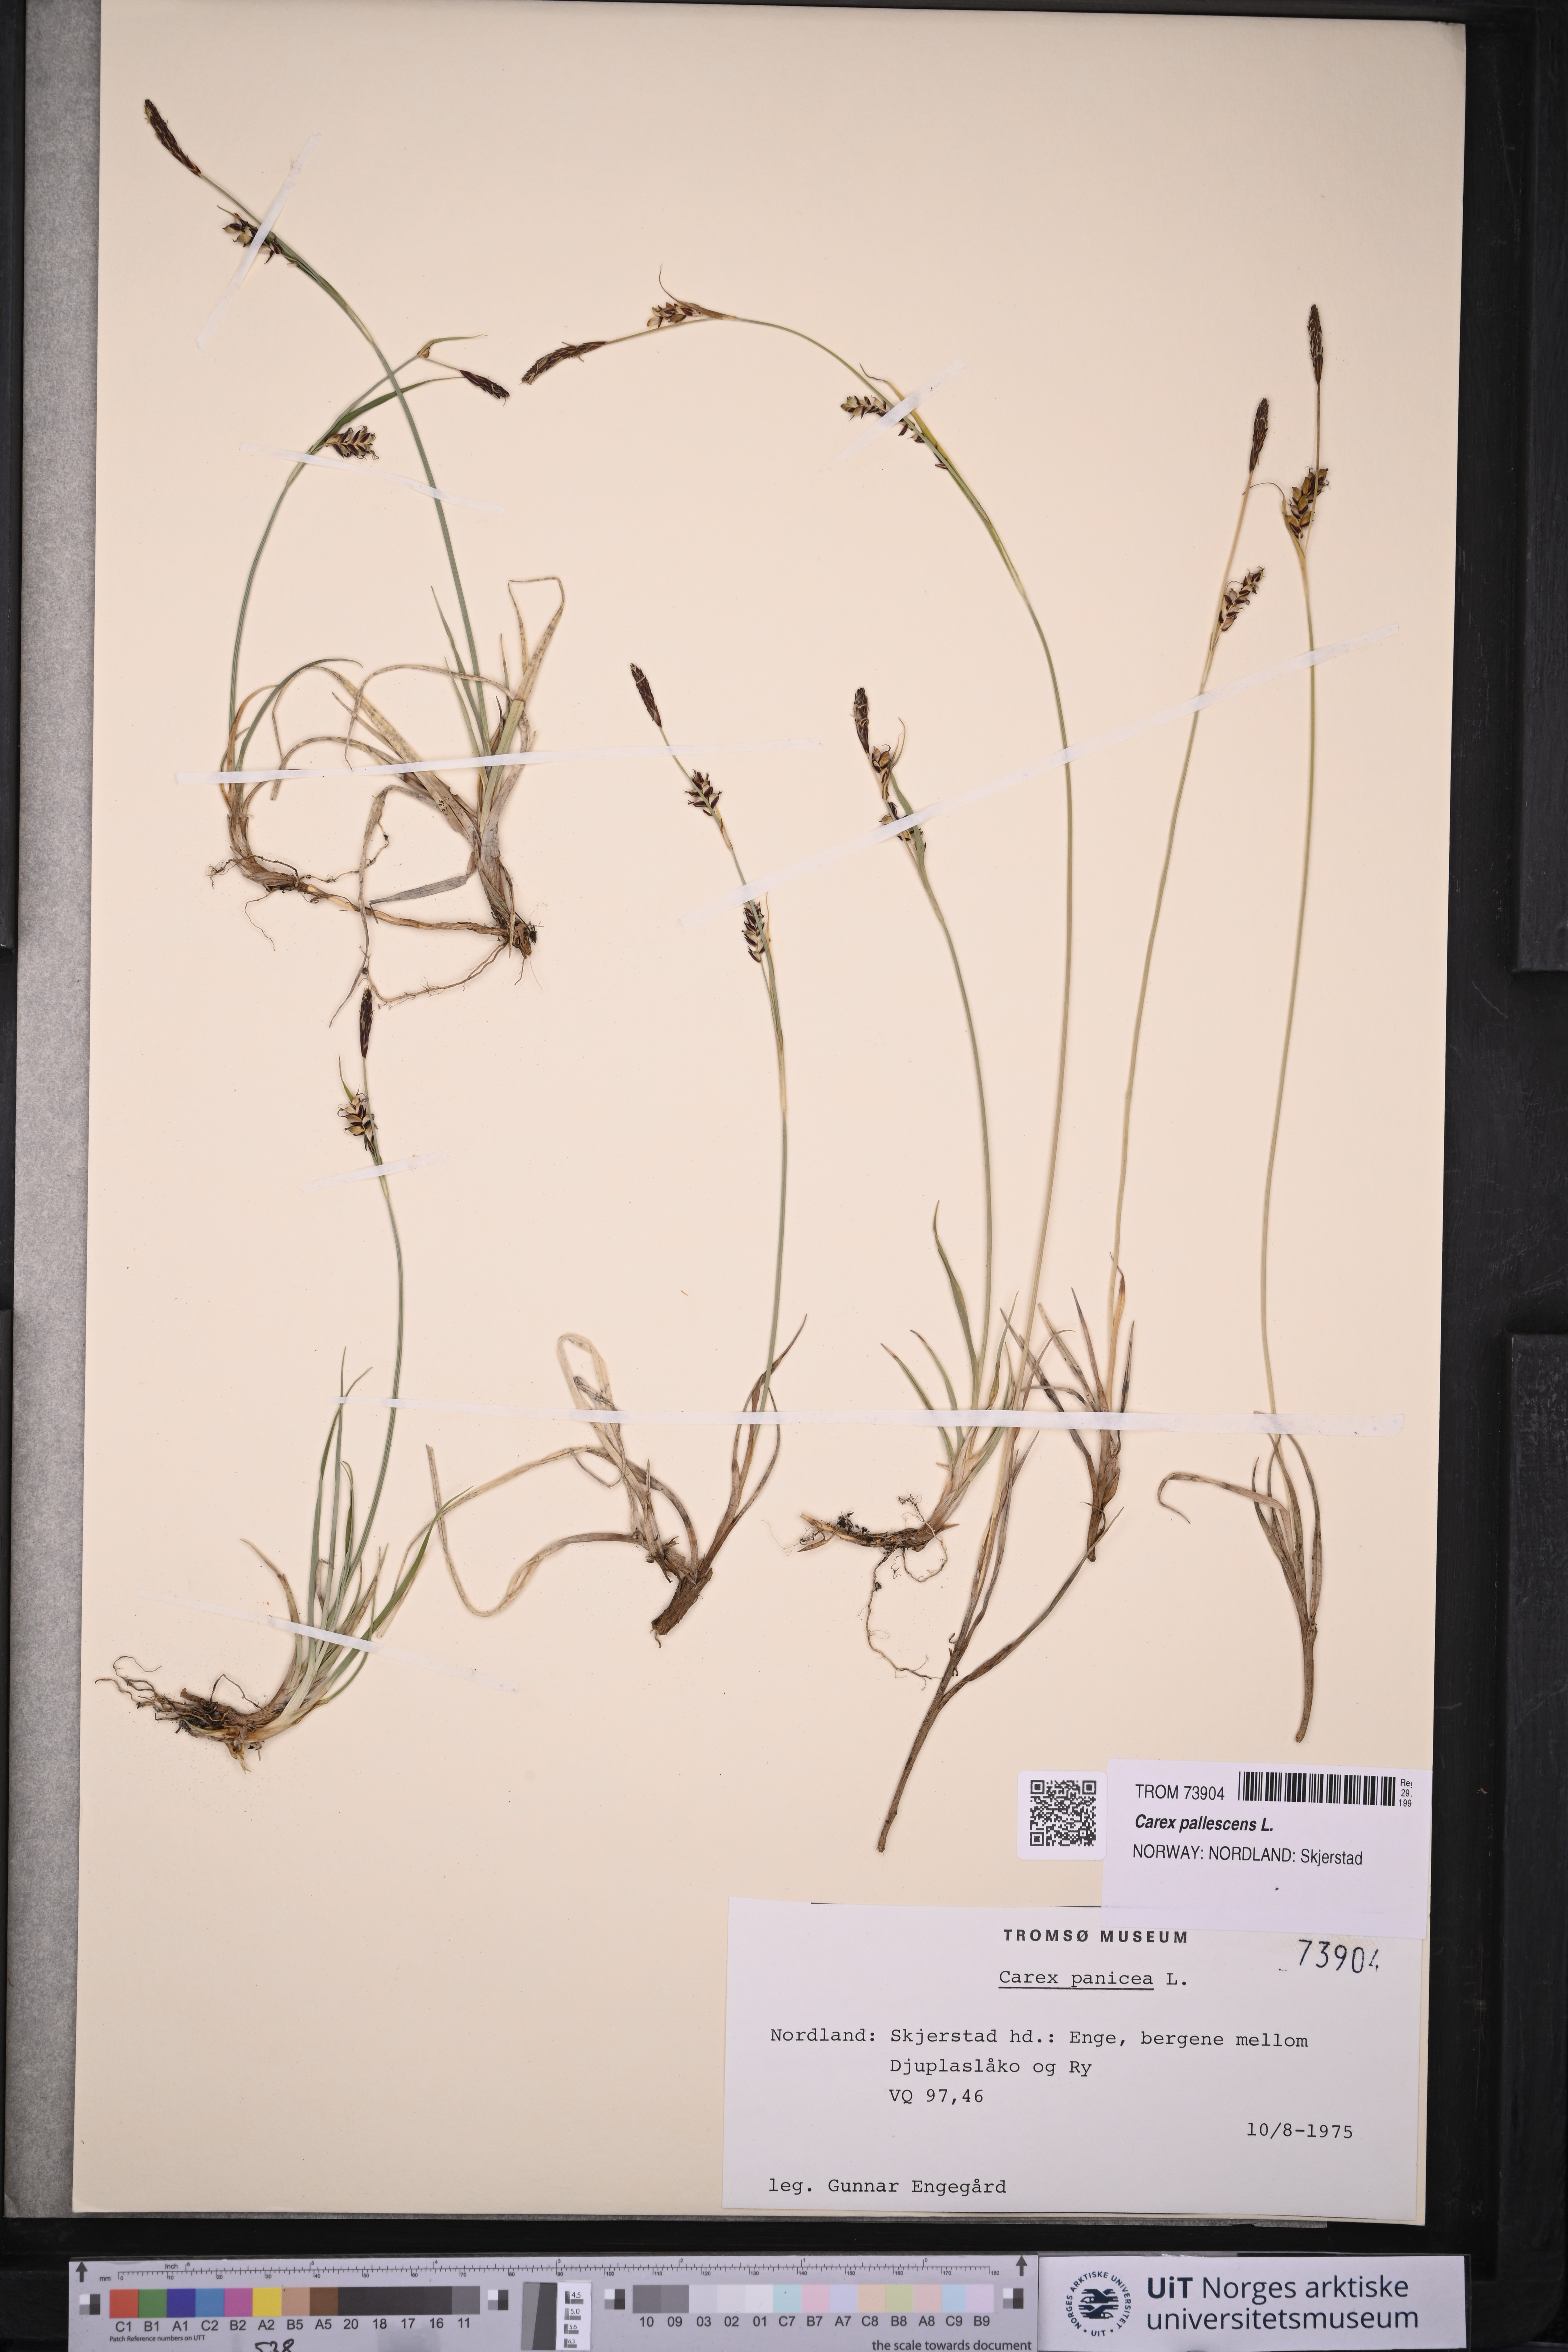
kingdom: Plantae
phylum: Tracheophyta
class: Liliopsida
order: Poales
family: Cyperaceae
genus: Carex
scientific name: Carex pallescens
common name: Pale sedge
